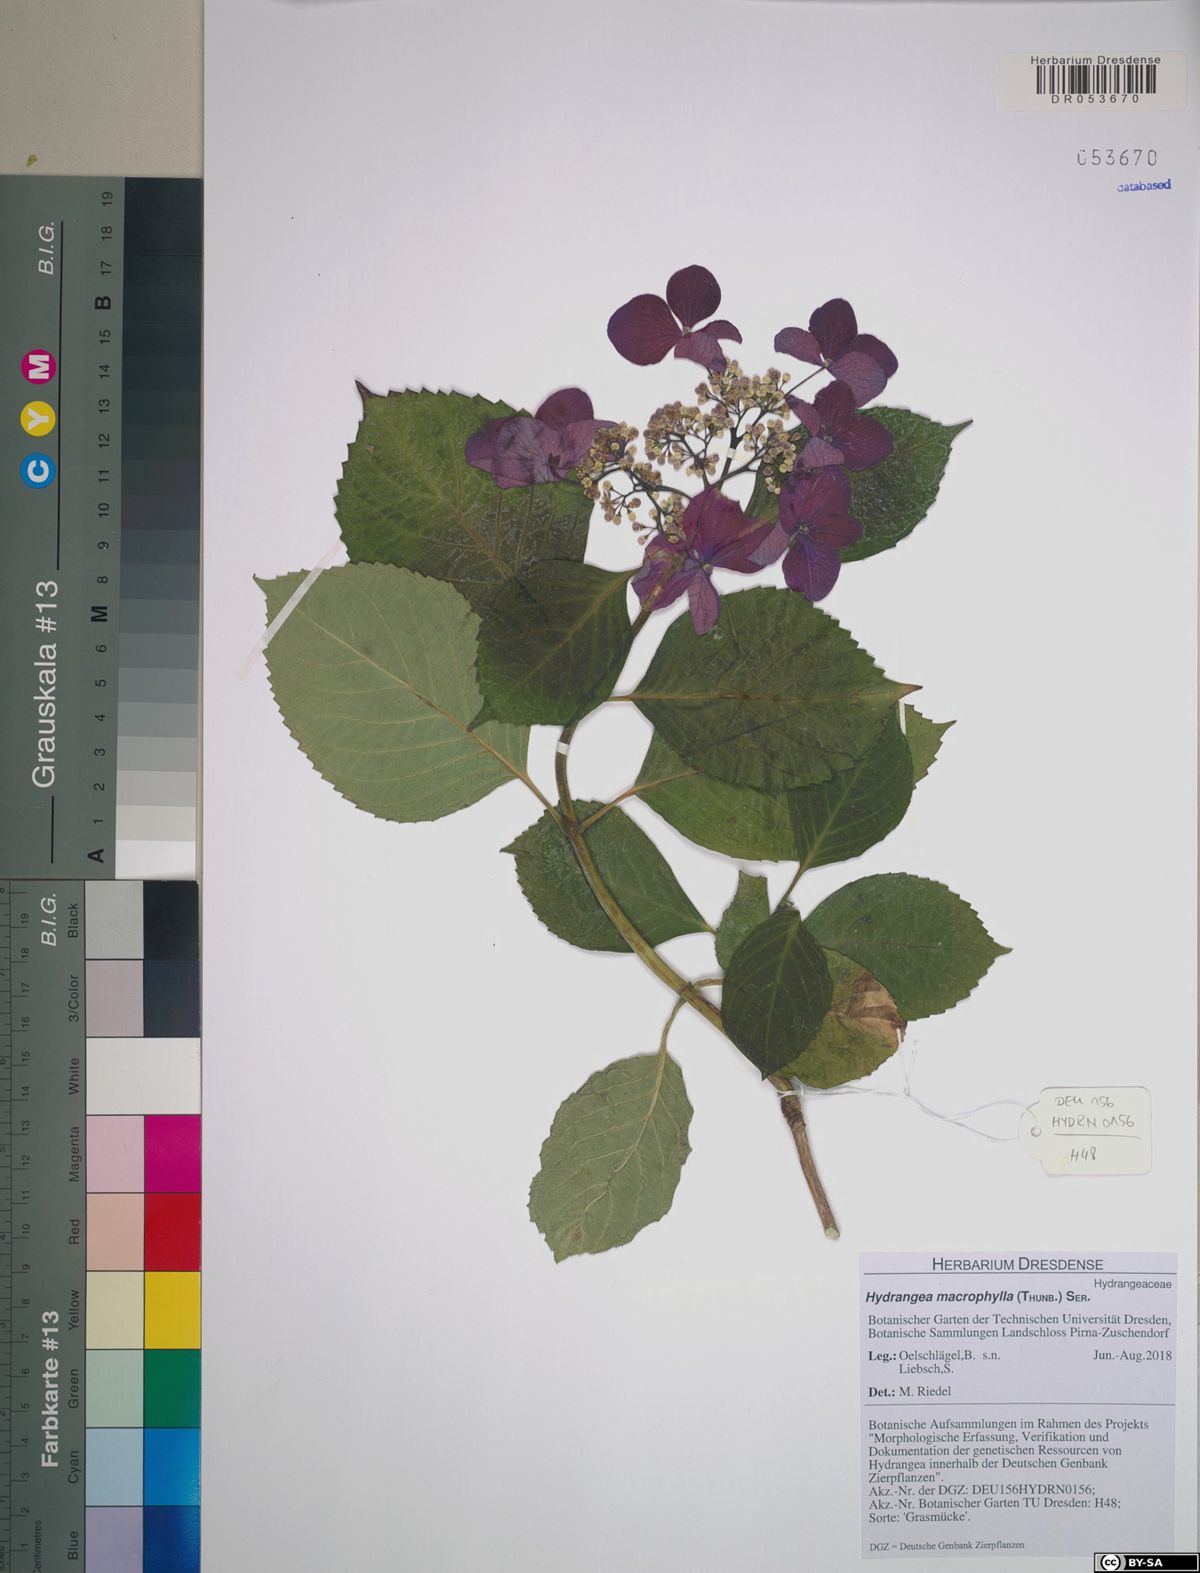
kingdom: Plantae
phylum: Tracheophyta
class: Magnoliopsida
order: Cornales
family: Hydrangeaceae
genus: Hydrangea
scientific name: Hydrangea macrophylla
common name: Hydrangea
